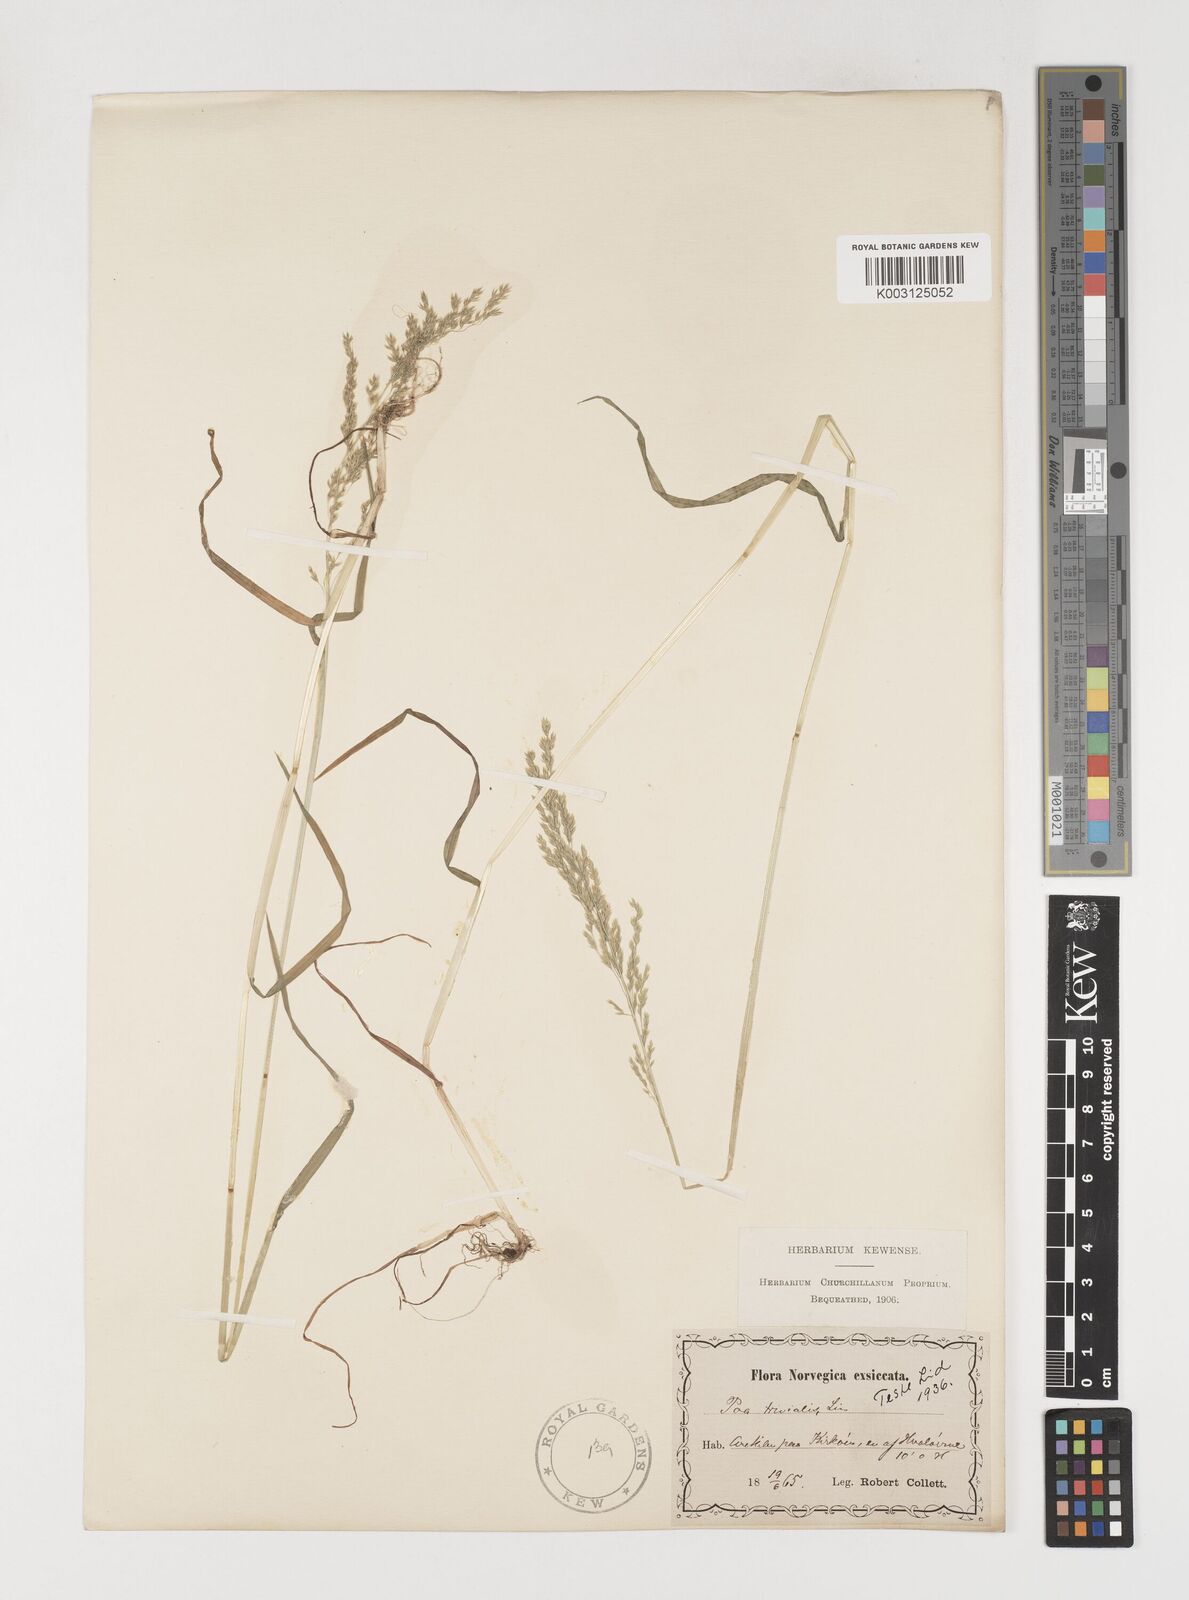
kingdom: Plantae
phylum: Tracheophyta
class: Liliopsida
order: Poales
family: Poaceae
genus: Poa
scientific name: Poa trivialis
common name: Rough bluegrass
